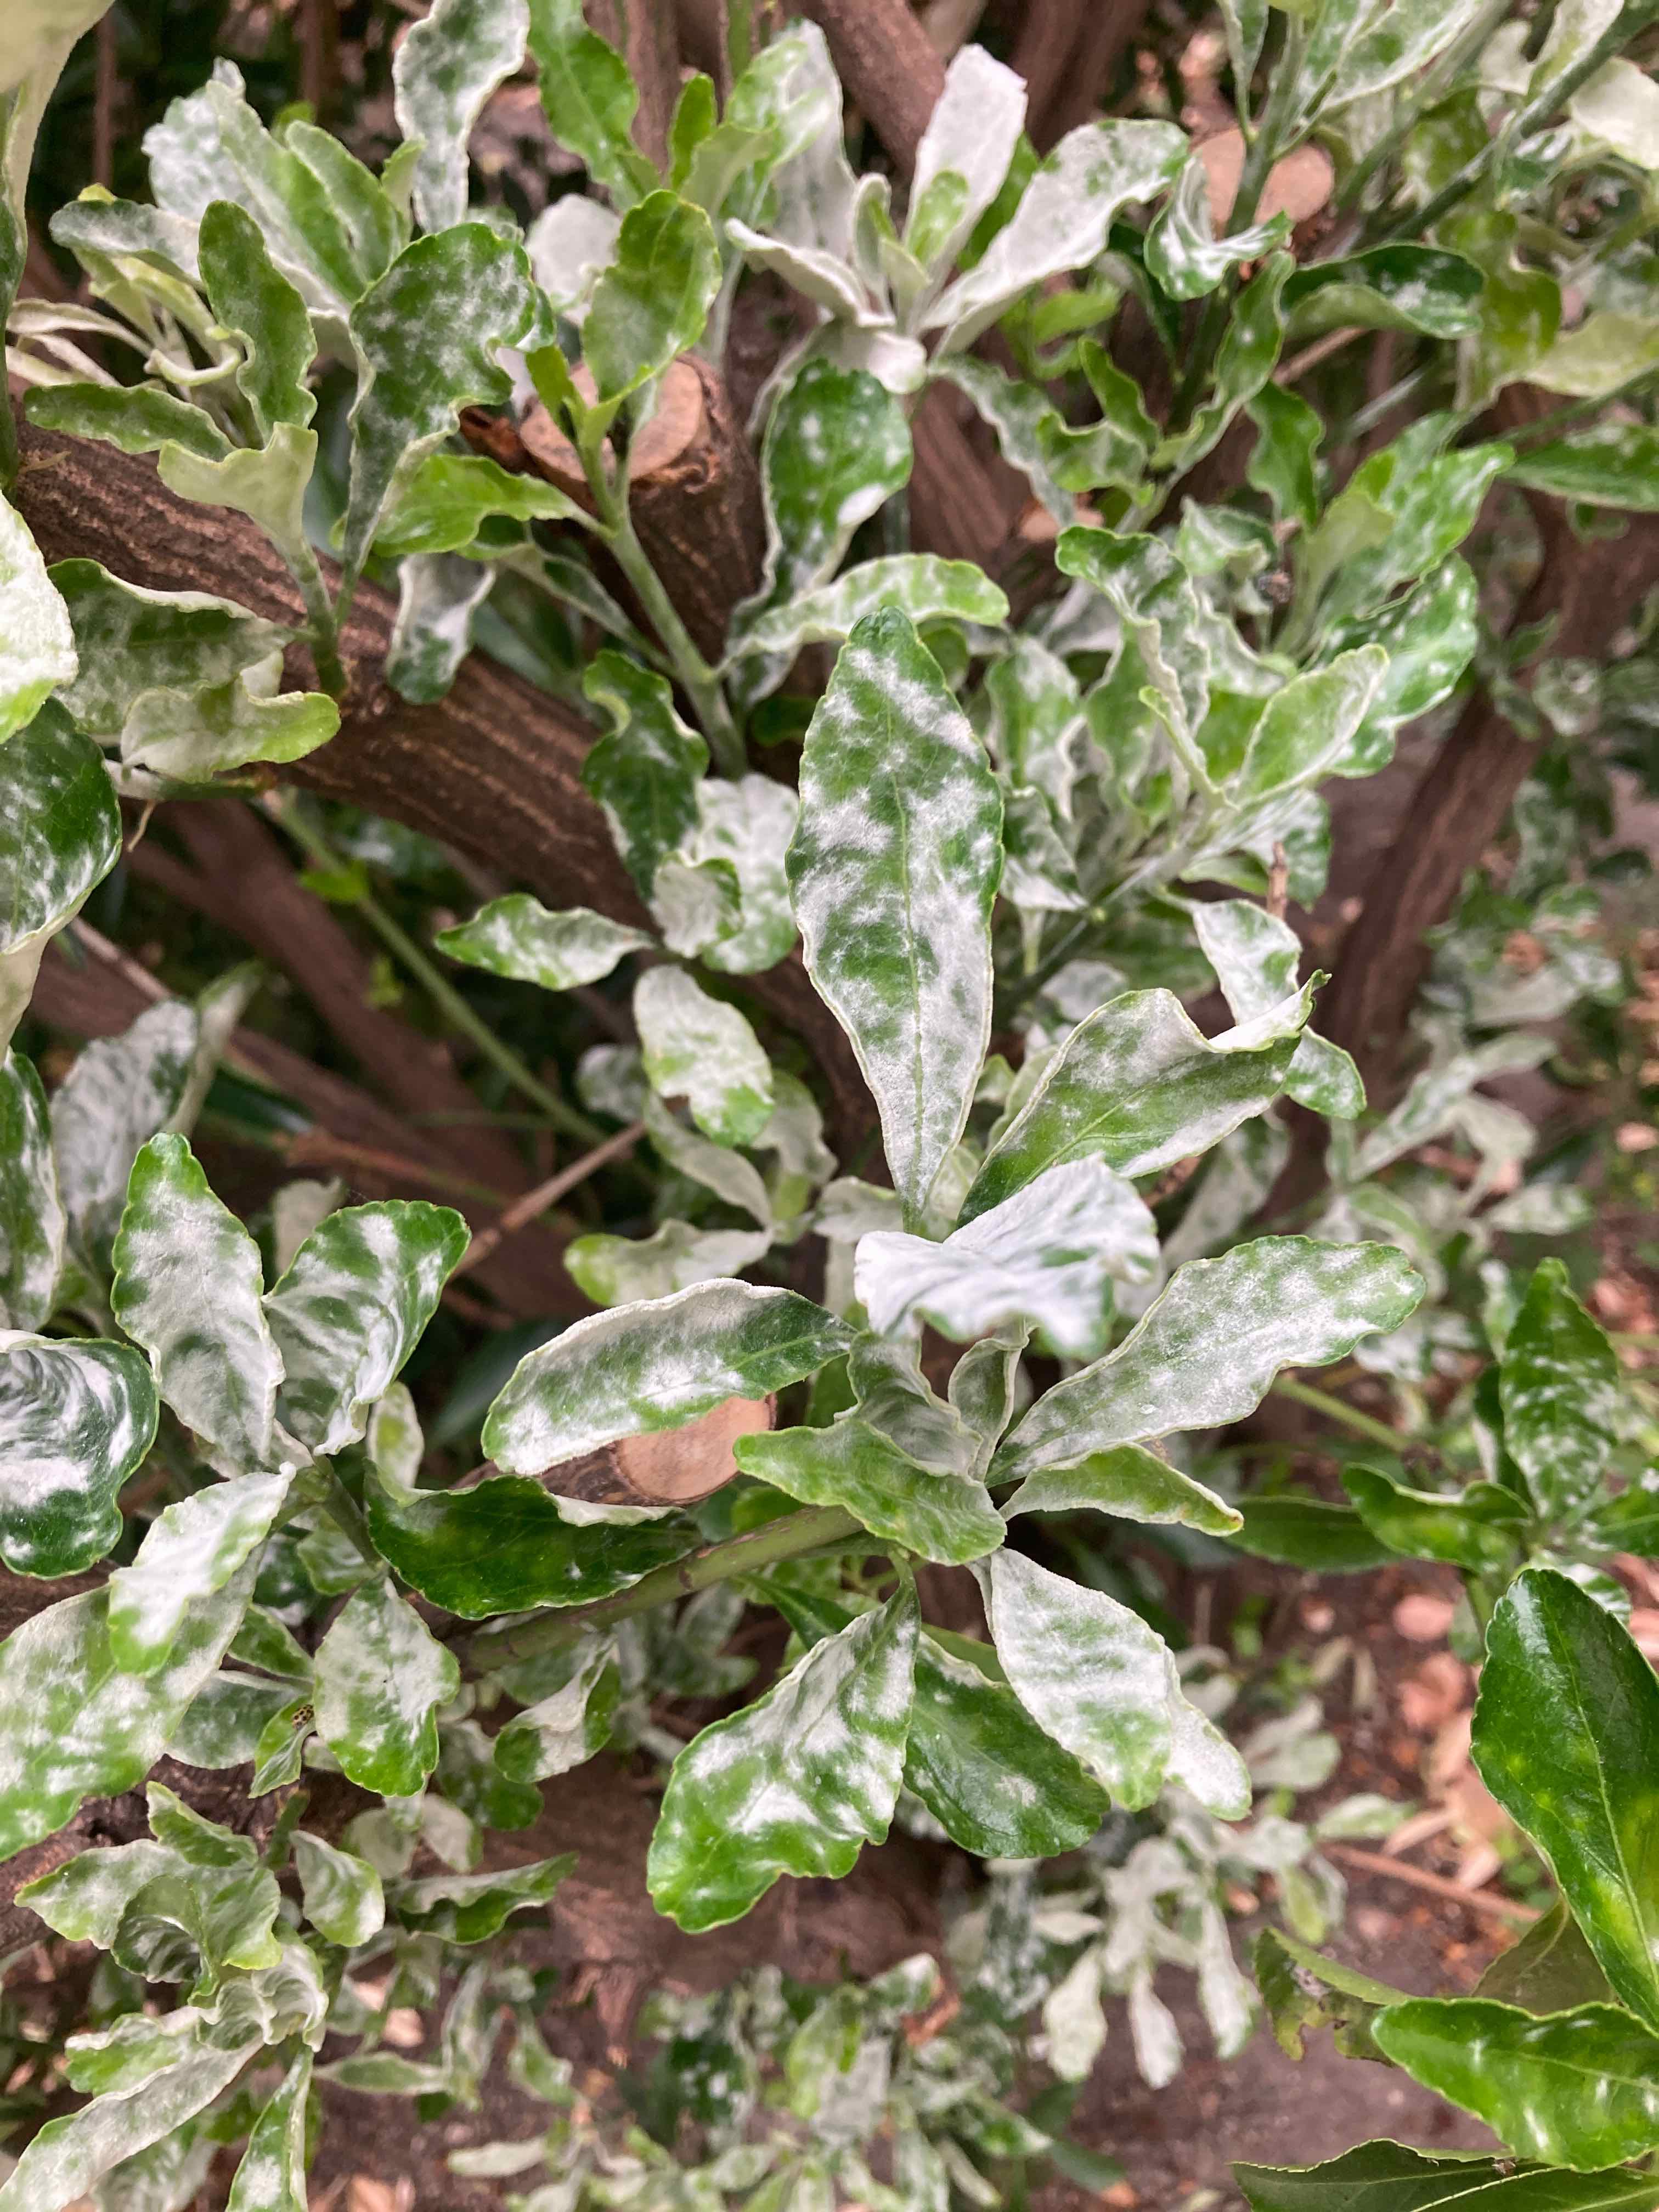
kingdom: Fungi
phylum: Ascomycota
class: Leotiomycetes
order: Helotiales
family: Erysiphaceae
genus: Erysiphe
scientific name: Erysiphe euonymi
